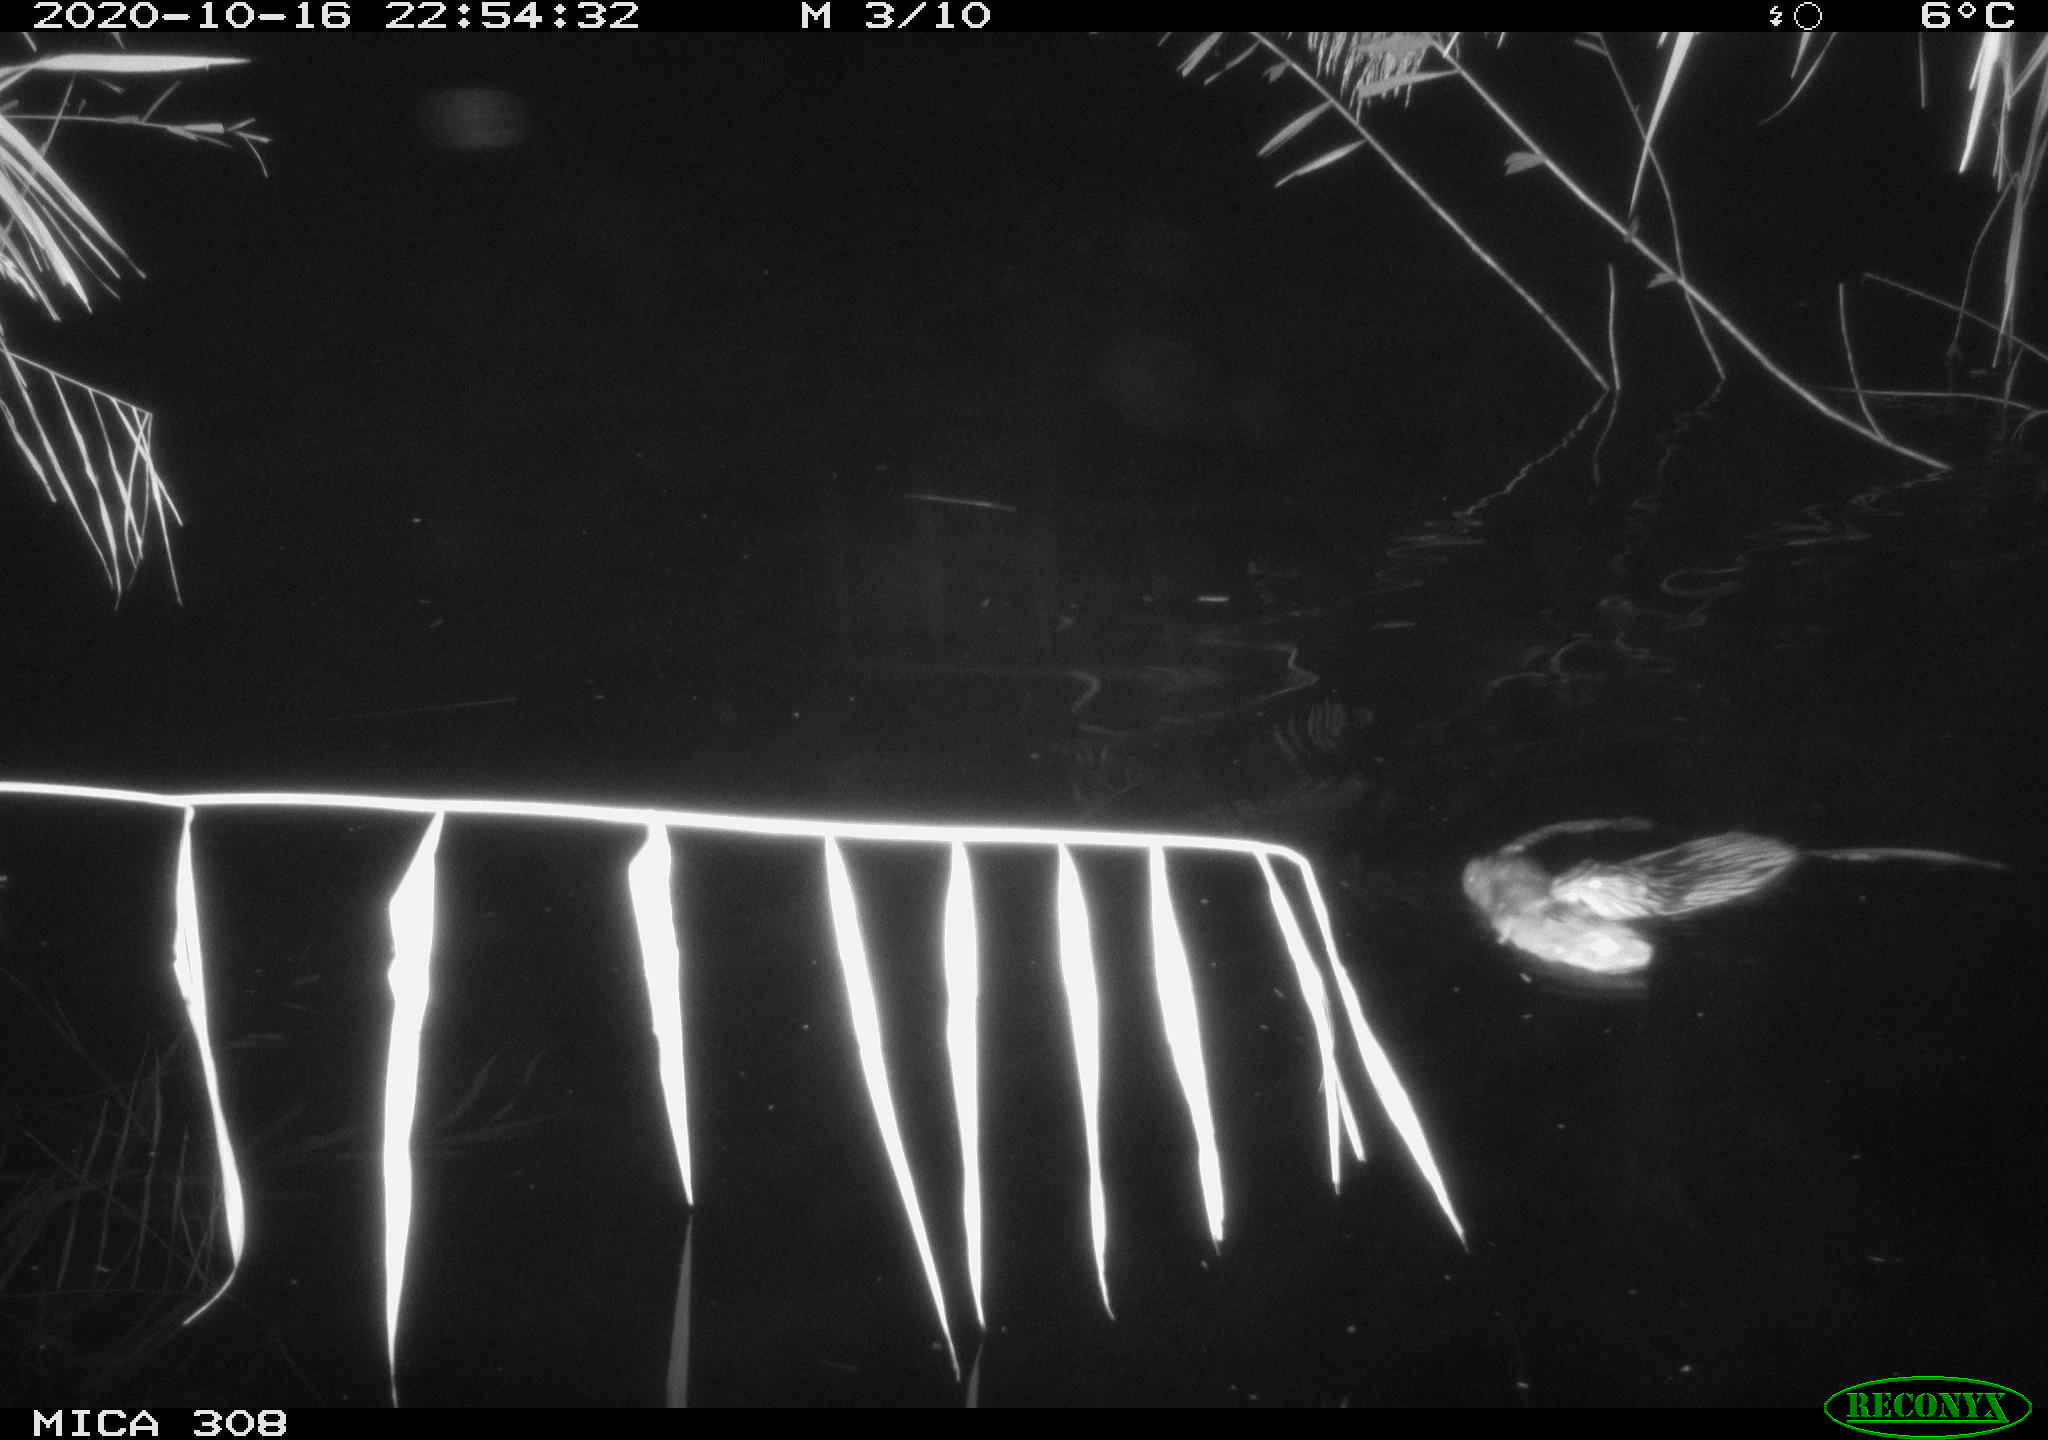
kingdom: Animalia
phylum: Chordata
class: Mammalia
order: Rodentia
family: Cricetidae
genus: Ondatra
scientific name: Ondatra zibethicus
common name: Muskrat
